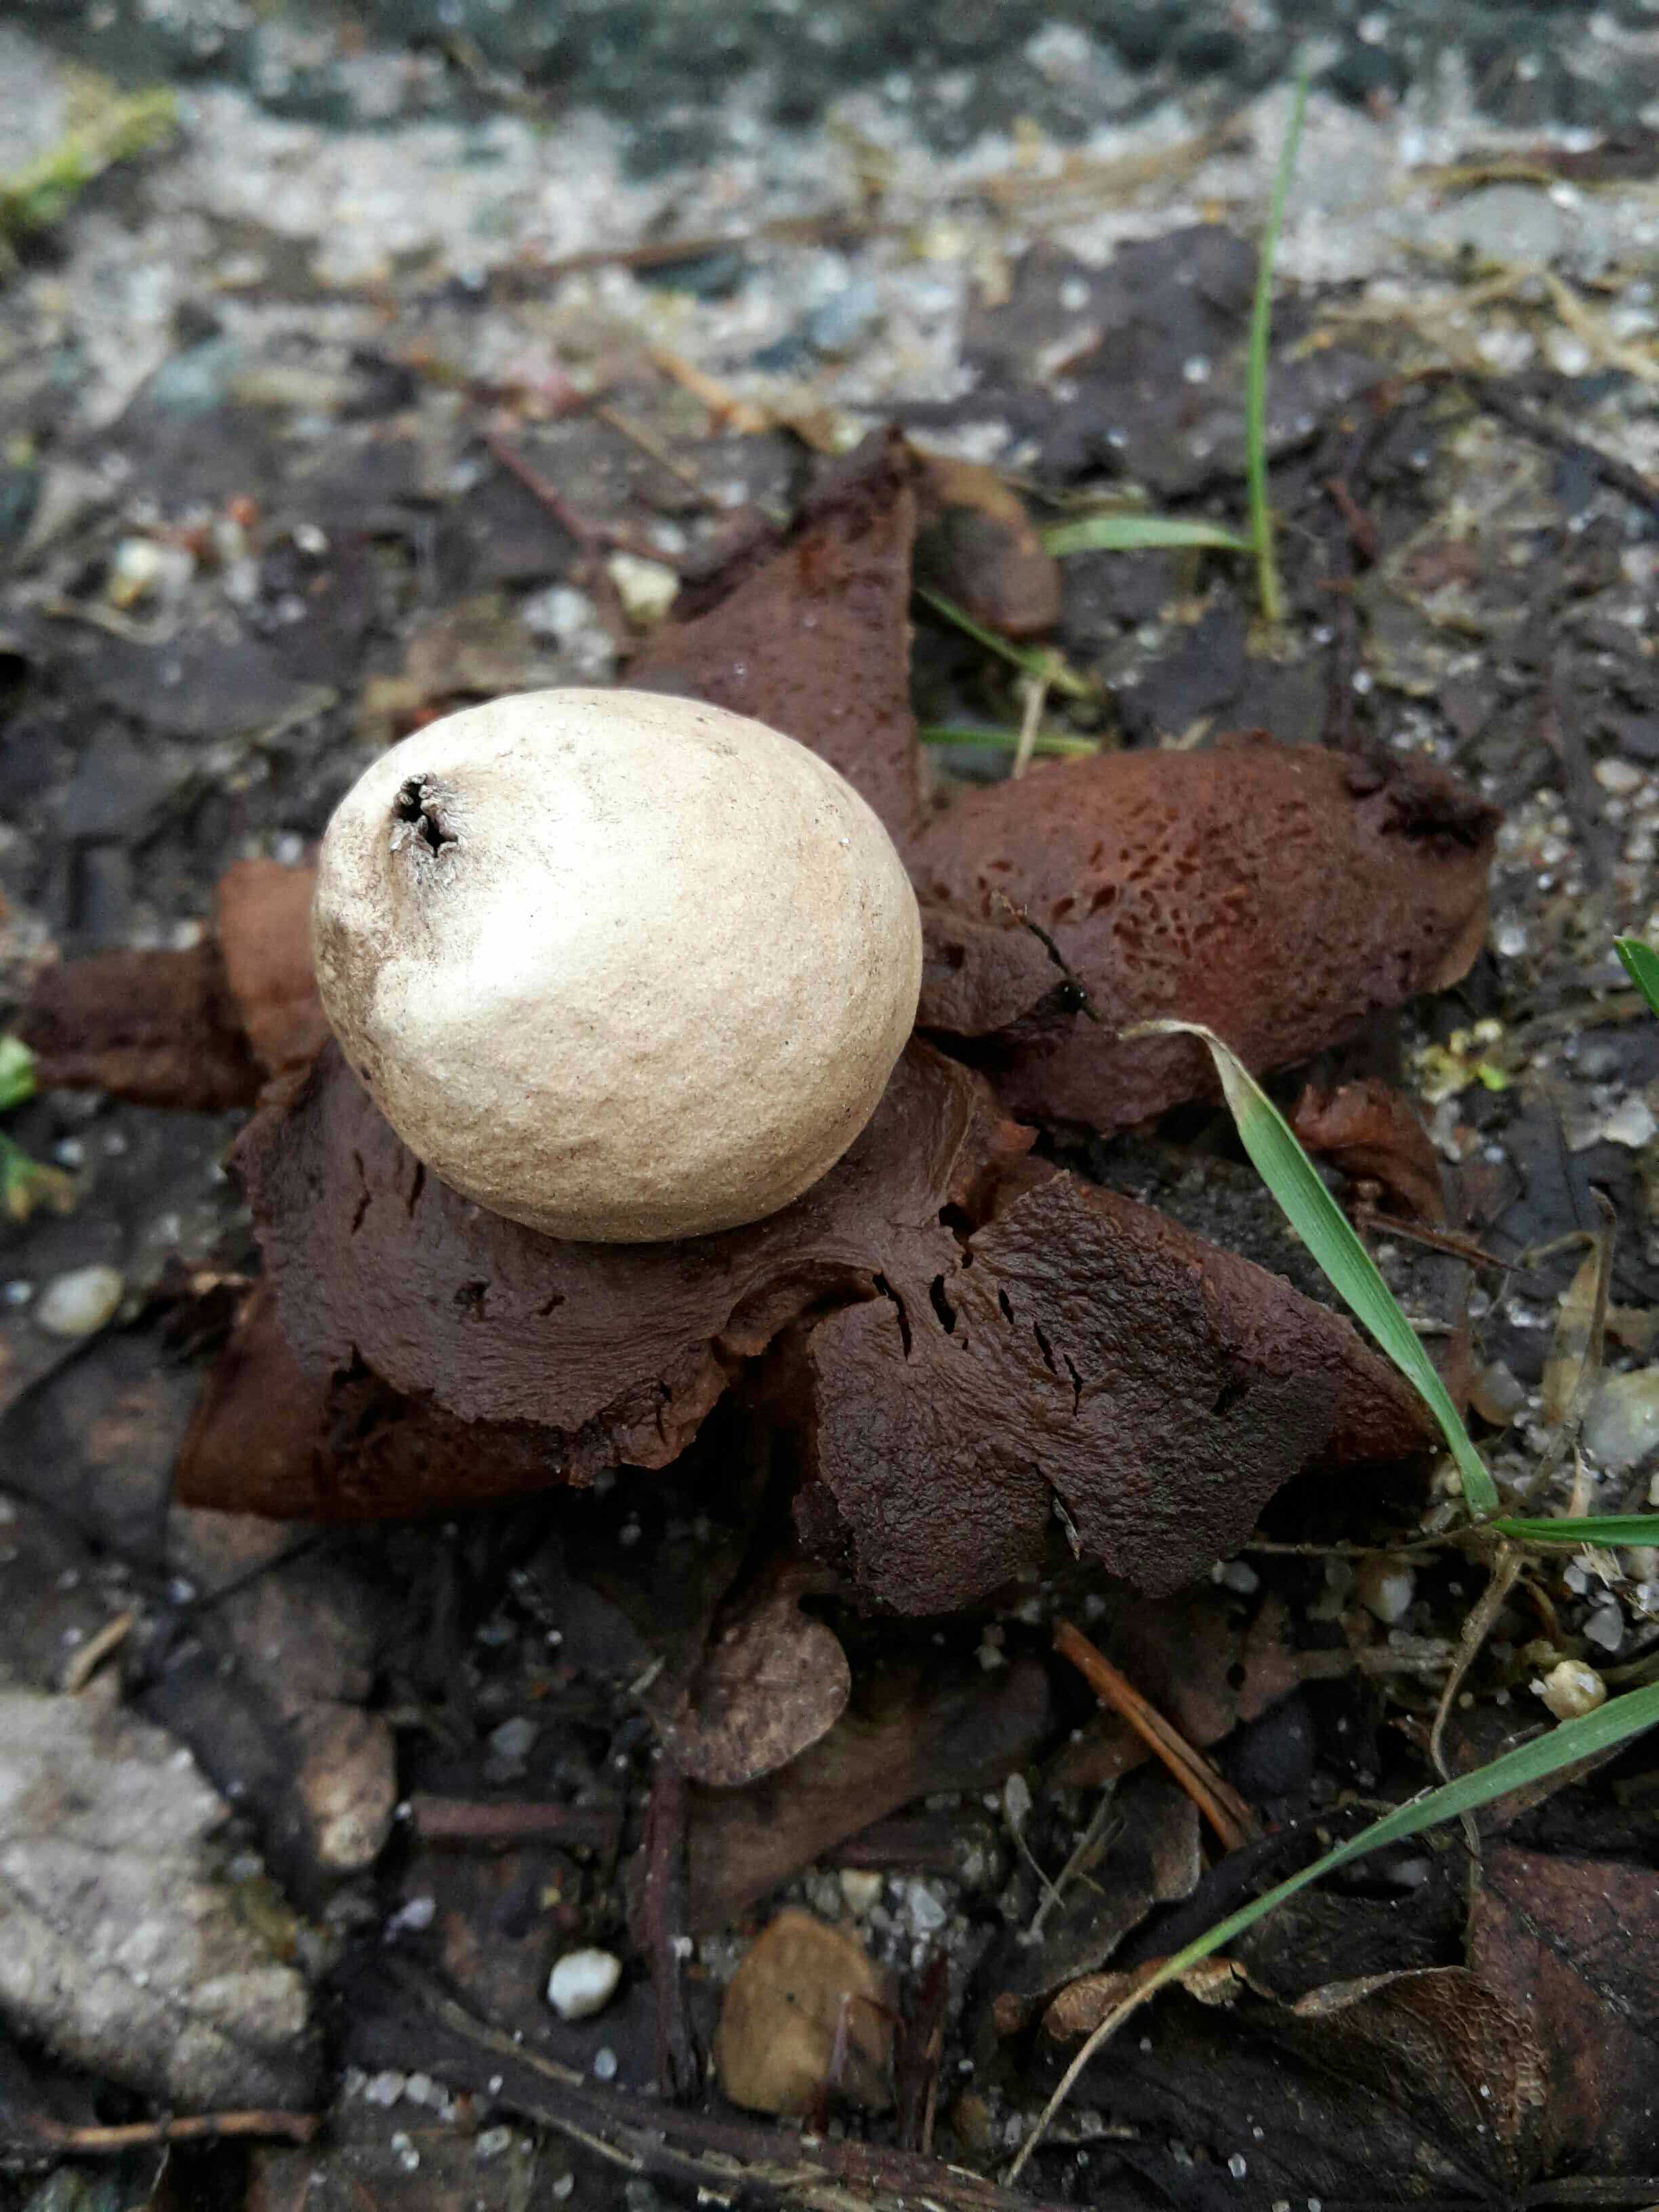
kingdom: Fungi
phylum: Basidiomycota
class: Agaricomycetes
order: Geastrales
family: Geastraceae
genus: Geastrum
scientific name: Geastrum fimbriatum
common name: frynset stjernebold
